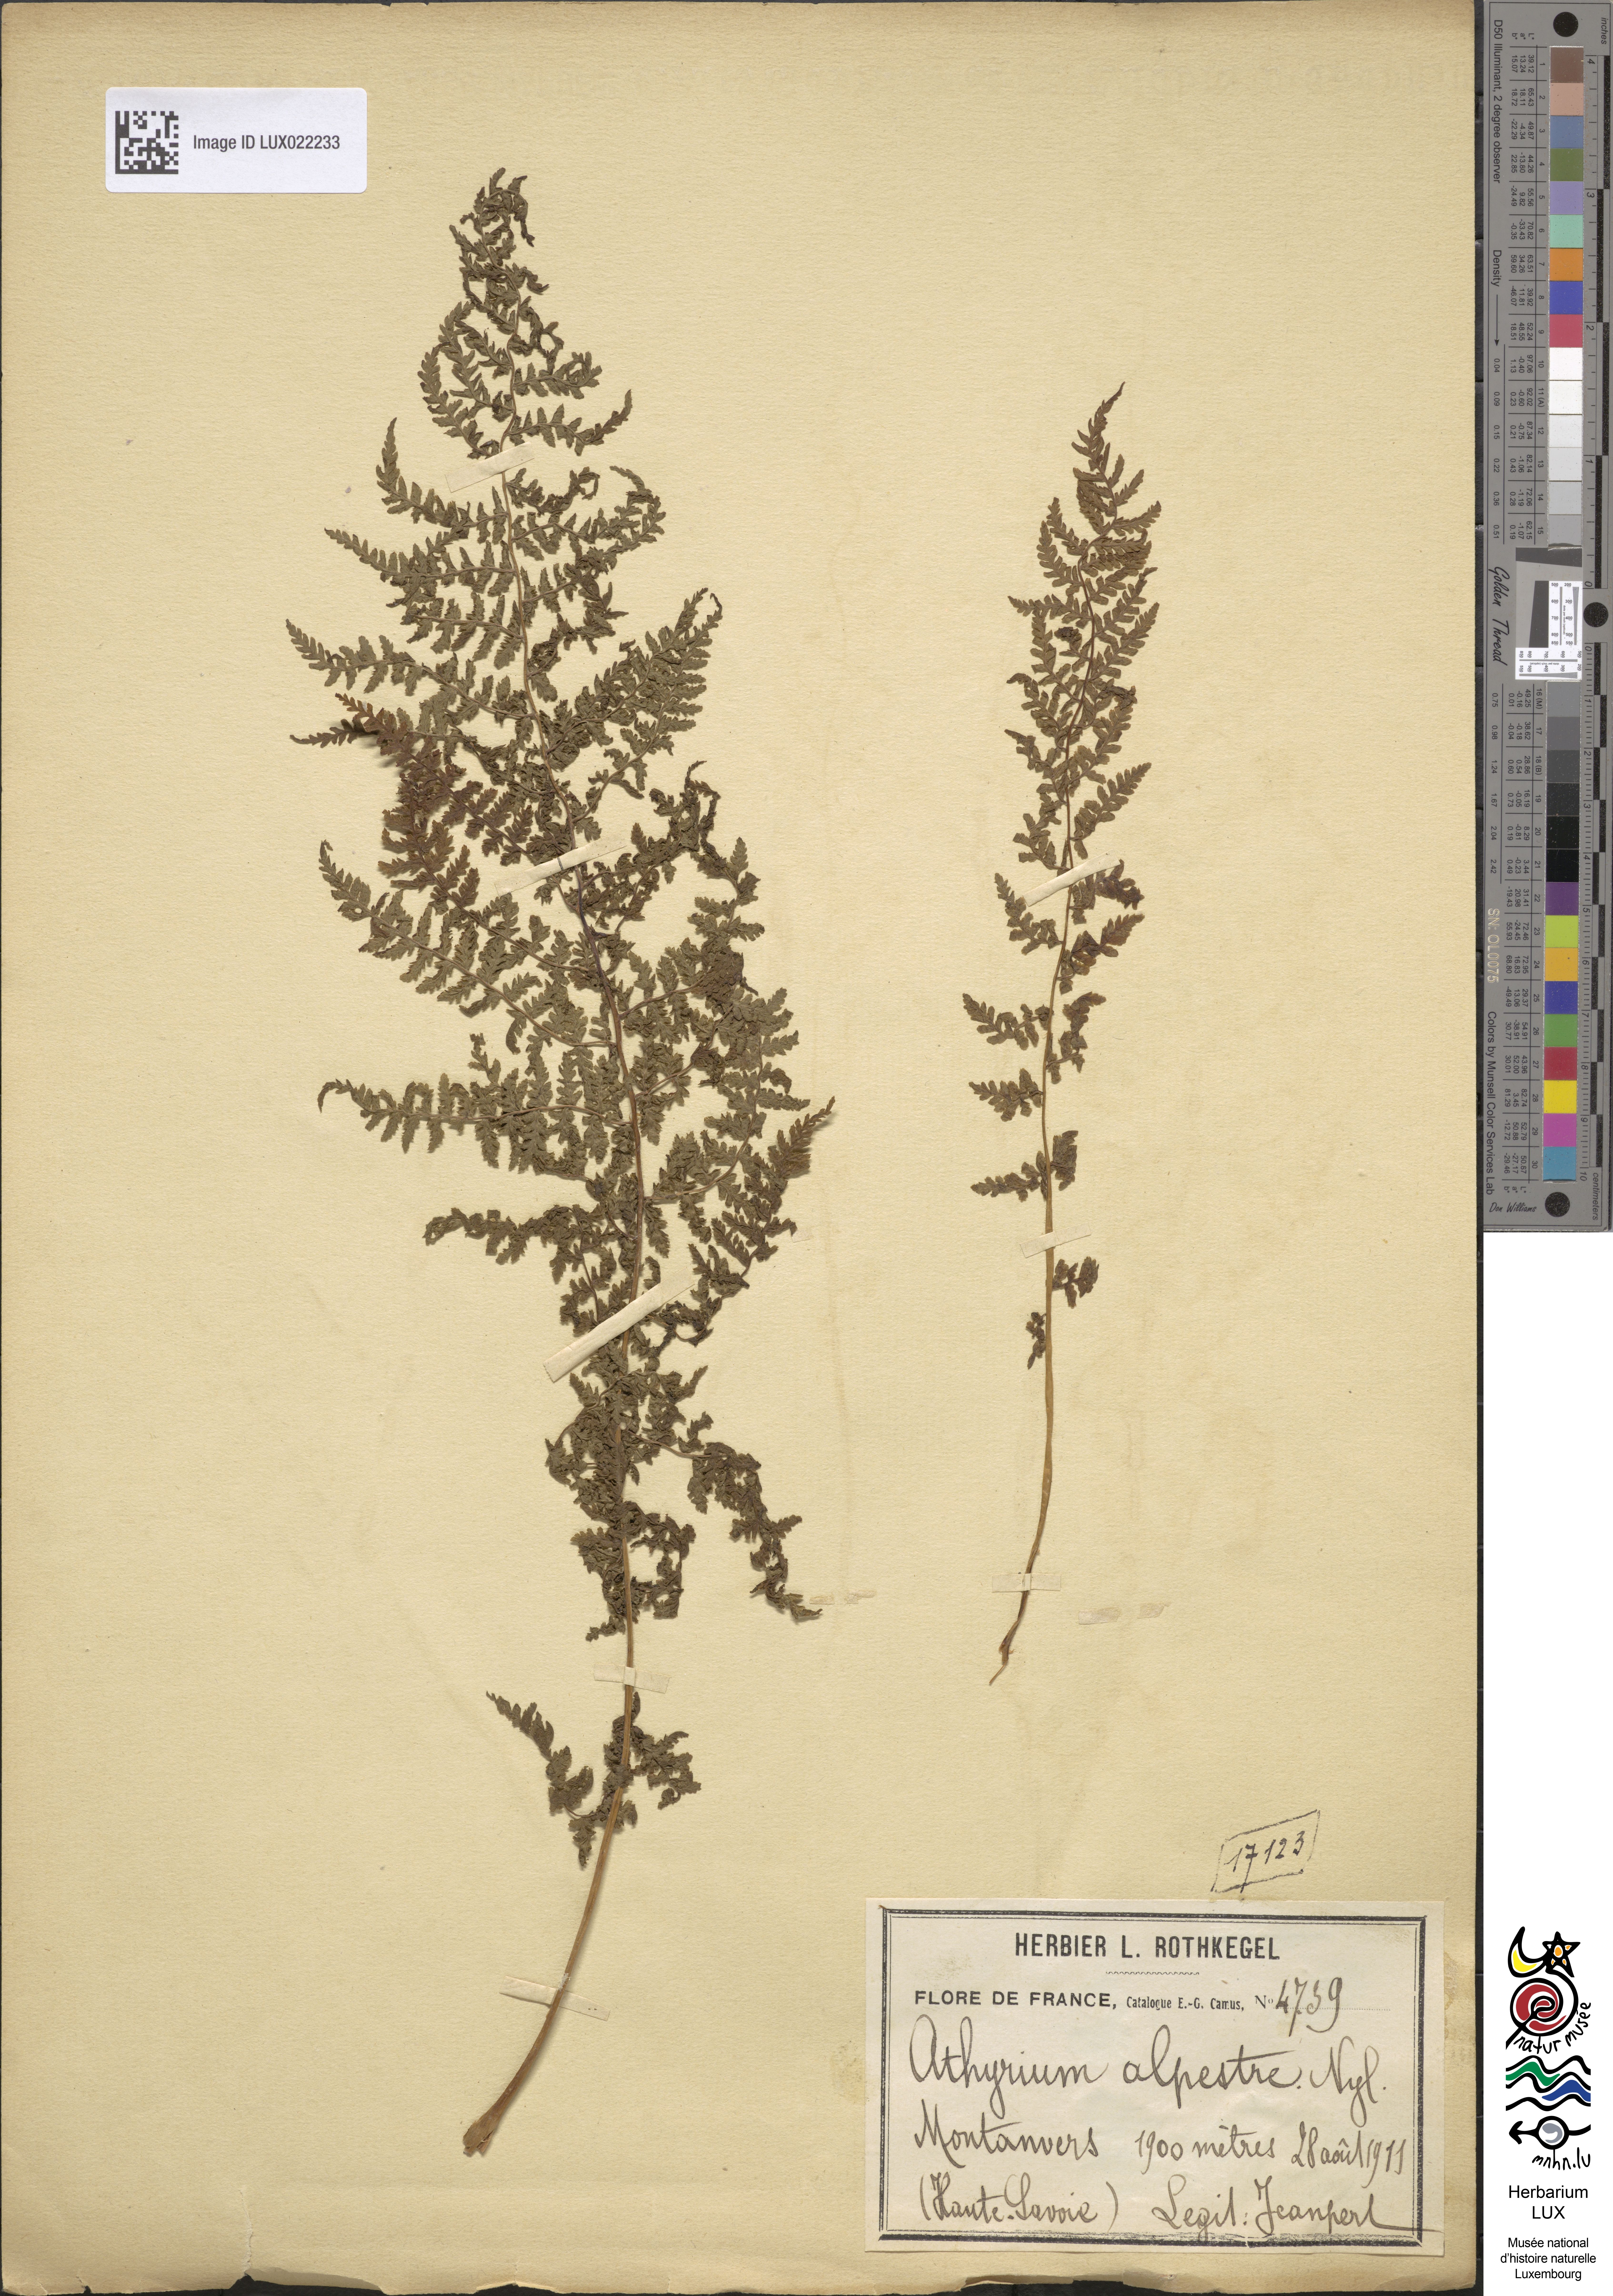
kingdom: Plantae
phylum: Tracheophyta
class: Polypodiopsida
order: Polypodiales
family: Athyriaceae
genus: Pseudathyrium
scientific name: Pseudathyrium alpestre
